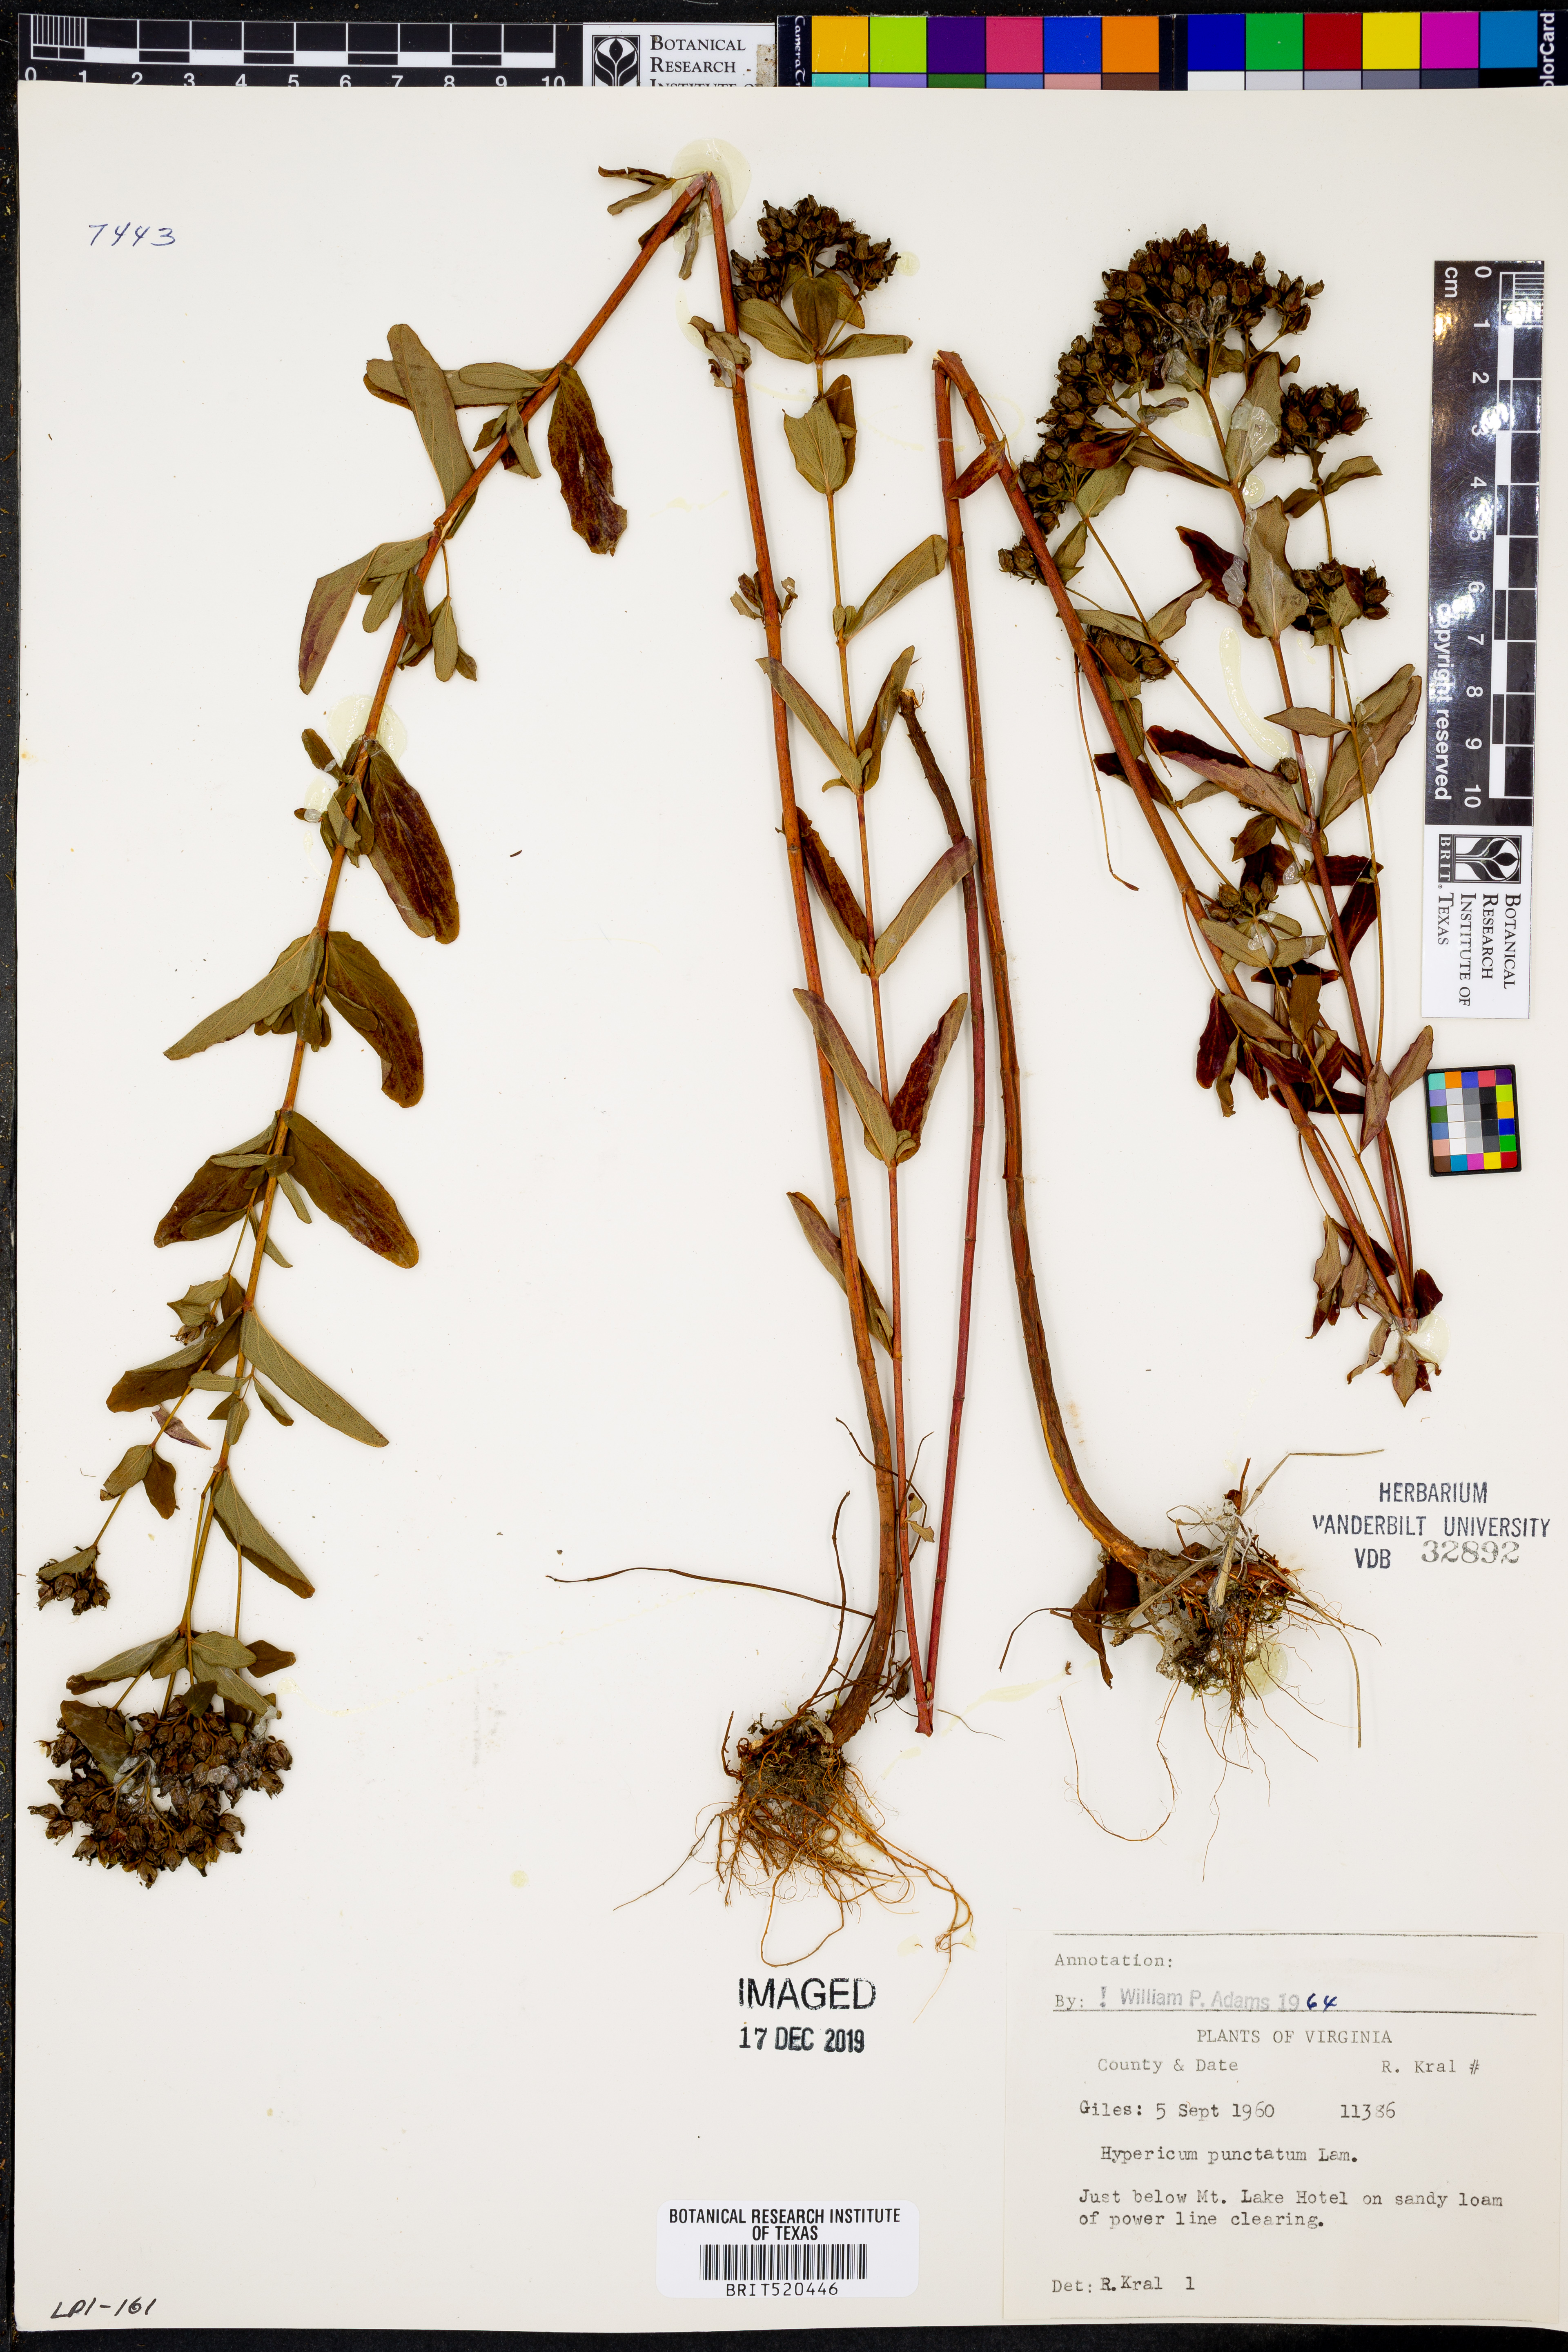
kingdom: Plantae
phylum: Tracheophyta
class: Magnoliopsida
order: Malpighiales
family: Hypericaceae
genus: Hypericum
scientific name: Hypericum punctatum
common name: Spotted st. john's-wort
